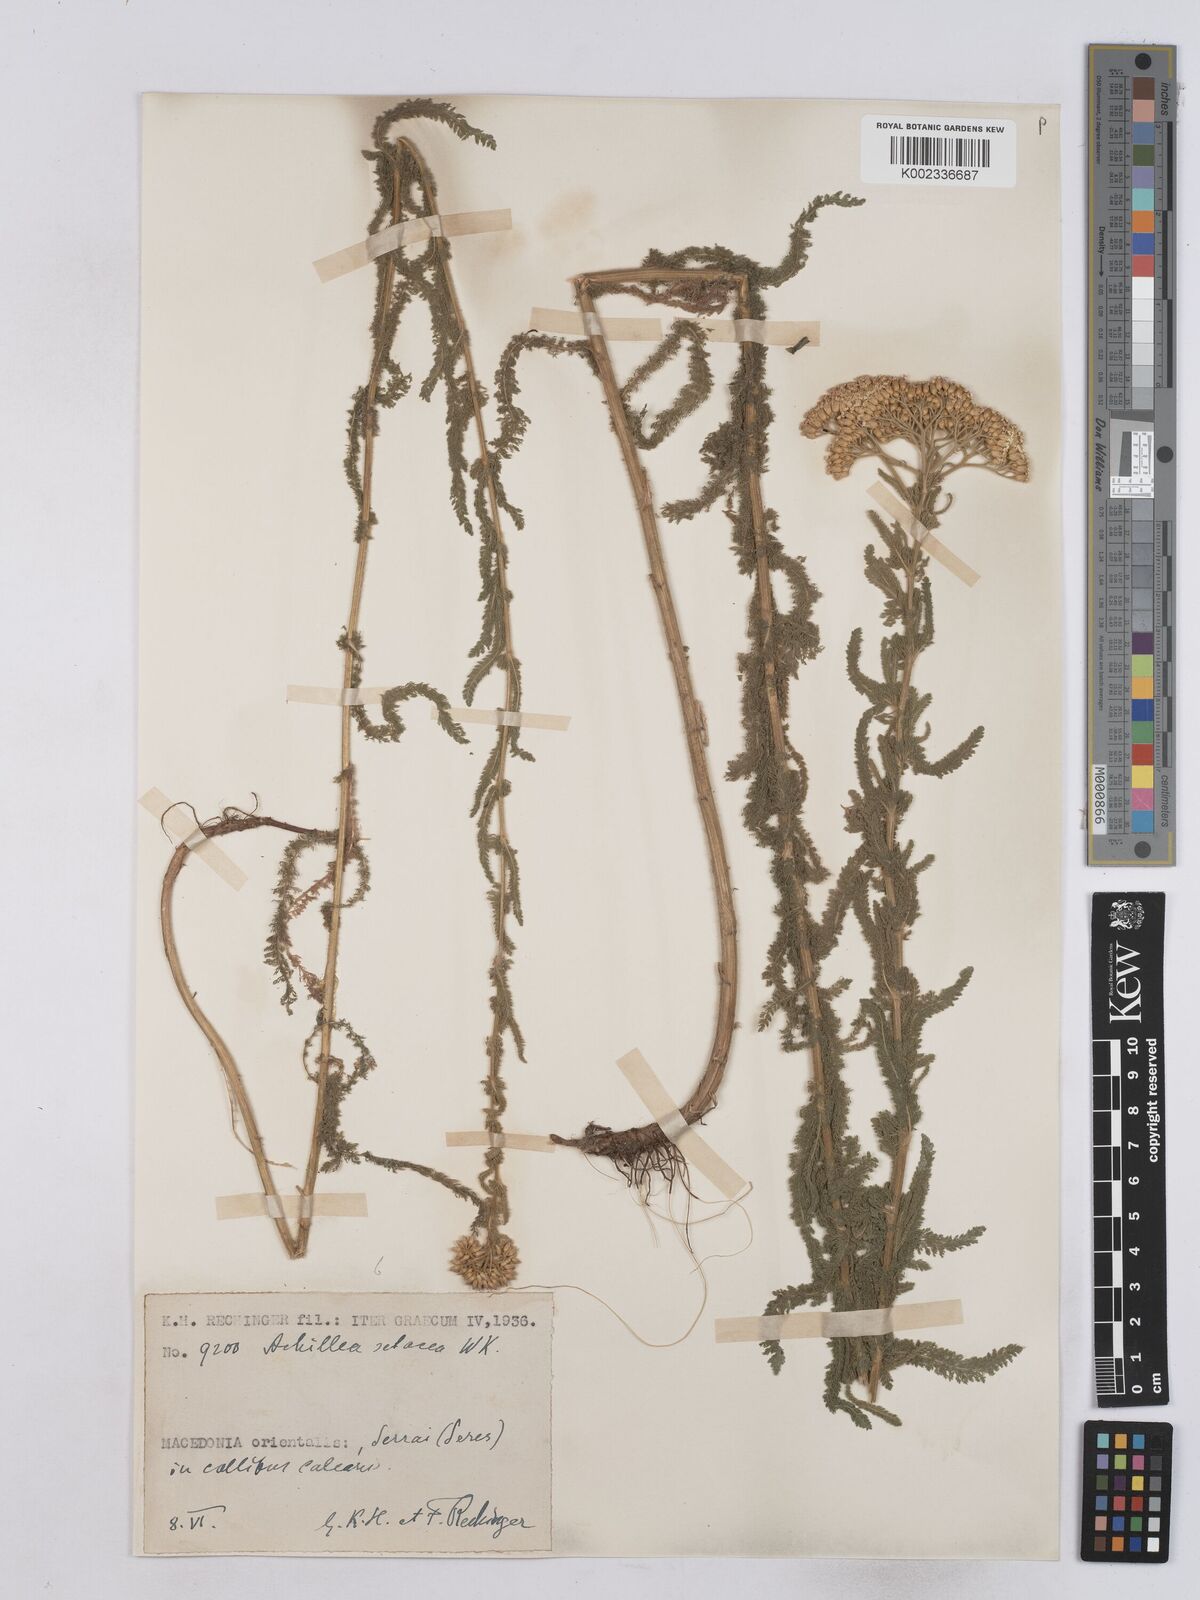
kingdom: Plantae
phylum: Tracheophyta
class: Magnoliopsida
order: Asterales
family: Asteraceae
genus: Achillea
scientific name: Achillea setacea
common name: Bristly yarrow
